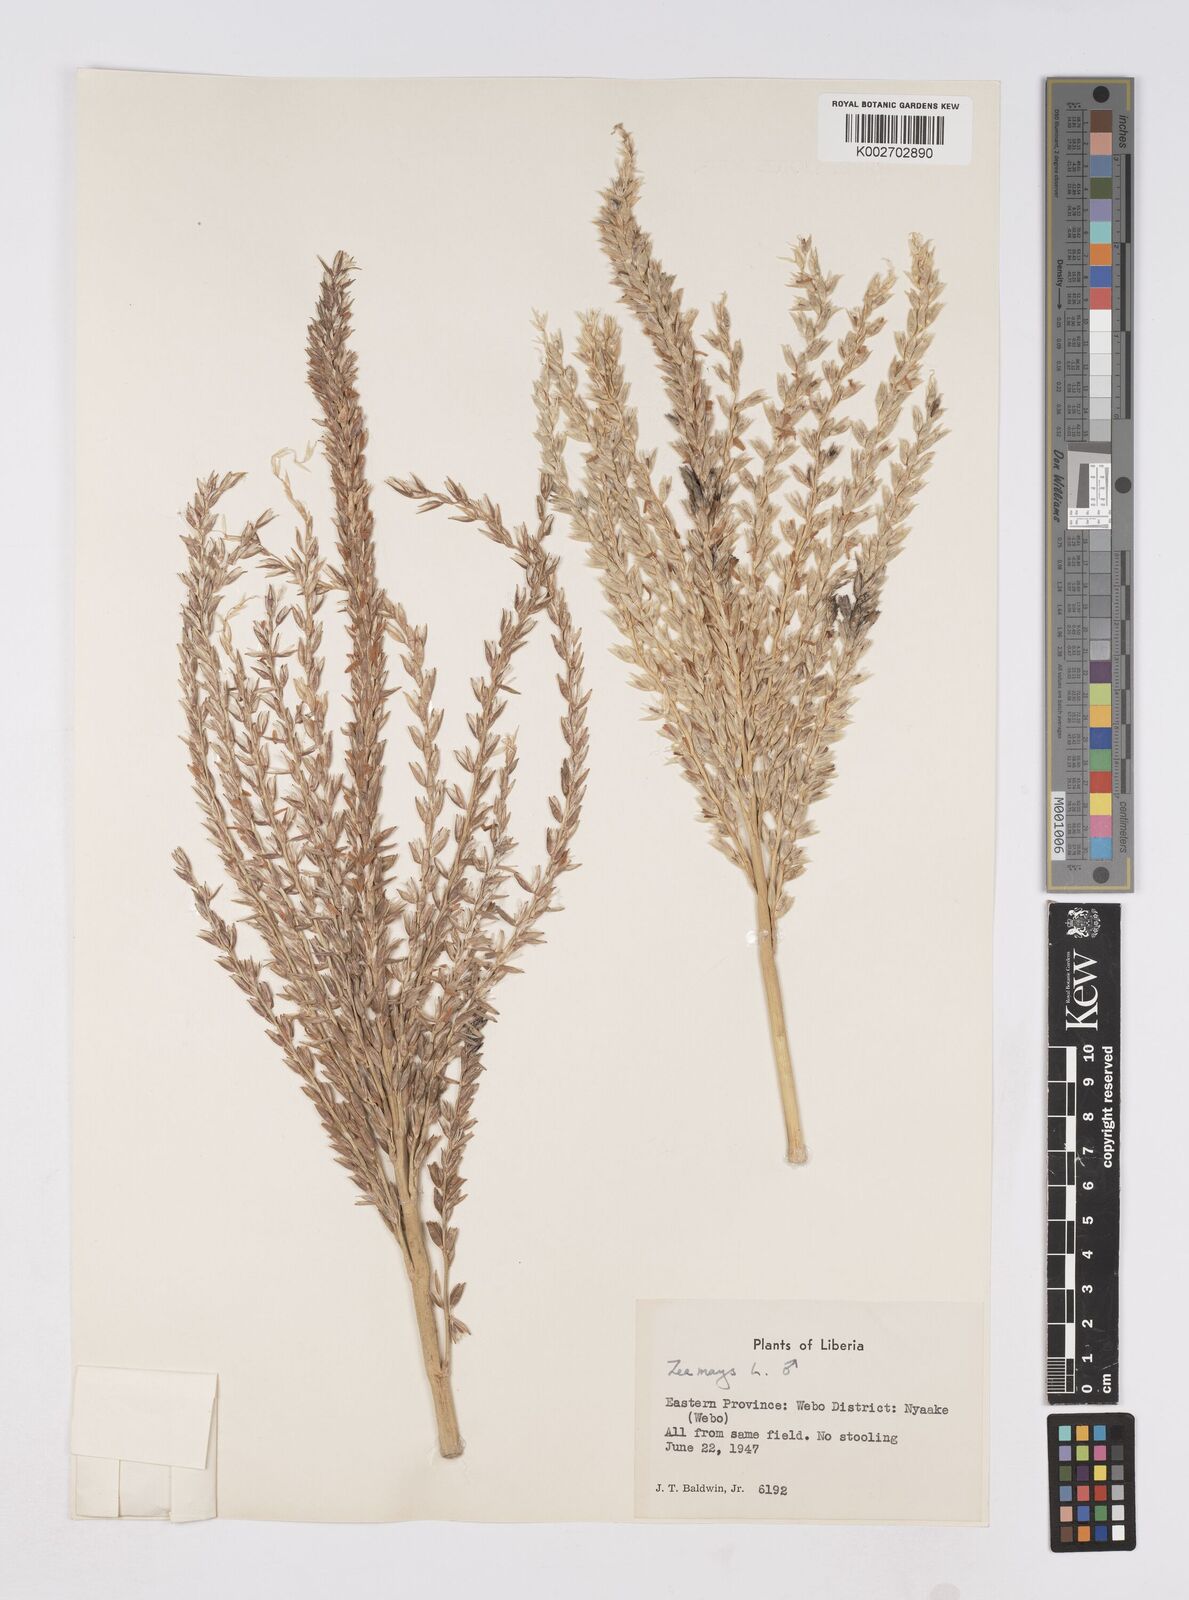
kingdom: Plantae
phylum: Tracheophyta
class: Liliopsida
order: Poales
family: Poaceae
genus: Zea
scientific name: Zea mays
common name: Maize
